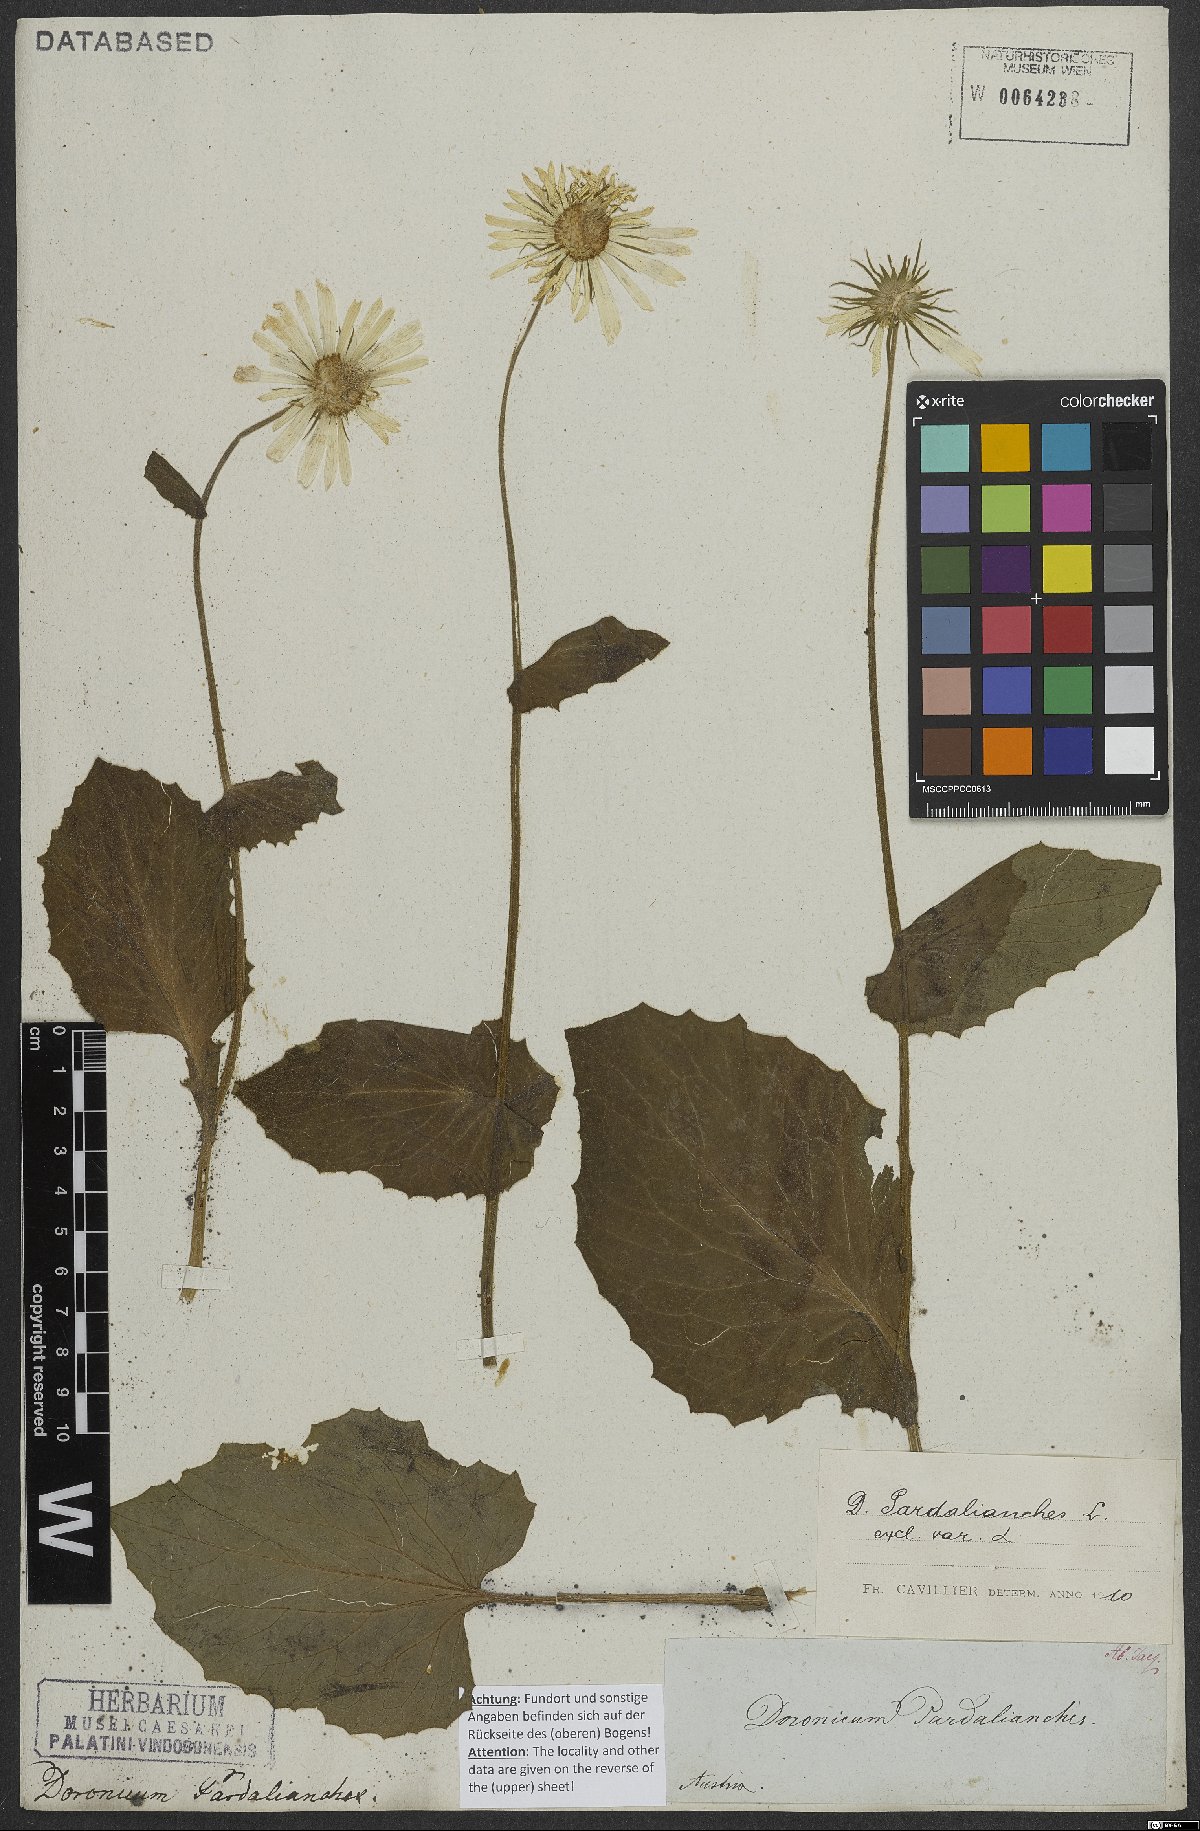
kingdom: Plantae
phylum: Tracheophyta
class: Magnoliopsida
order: Asterales
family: Asteraceae
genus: Doronicum
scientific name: Doronicum pardalianches
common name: Leopard's-bane
